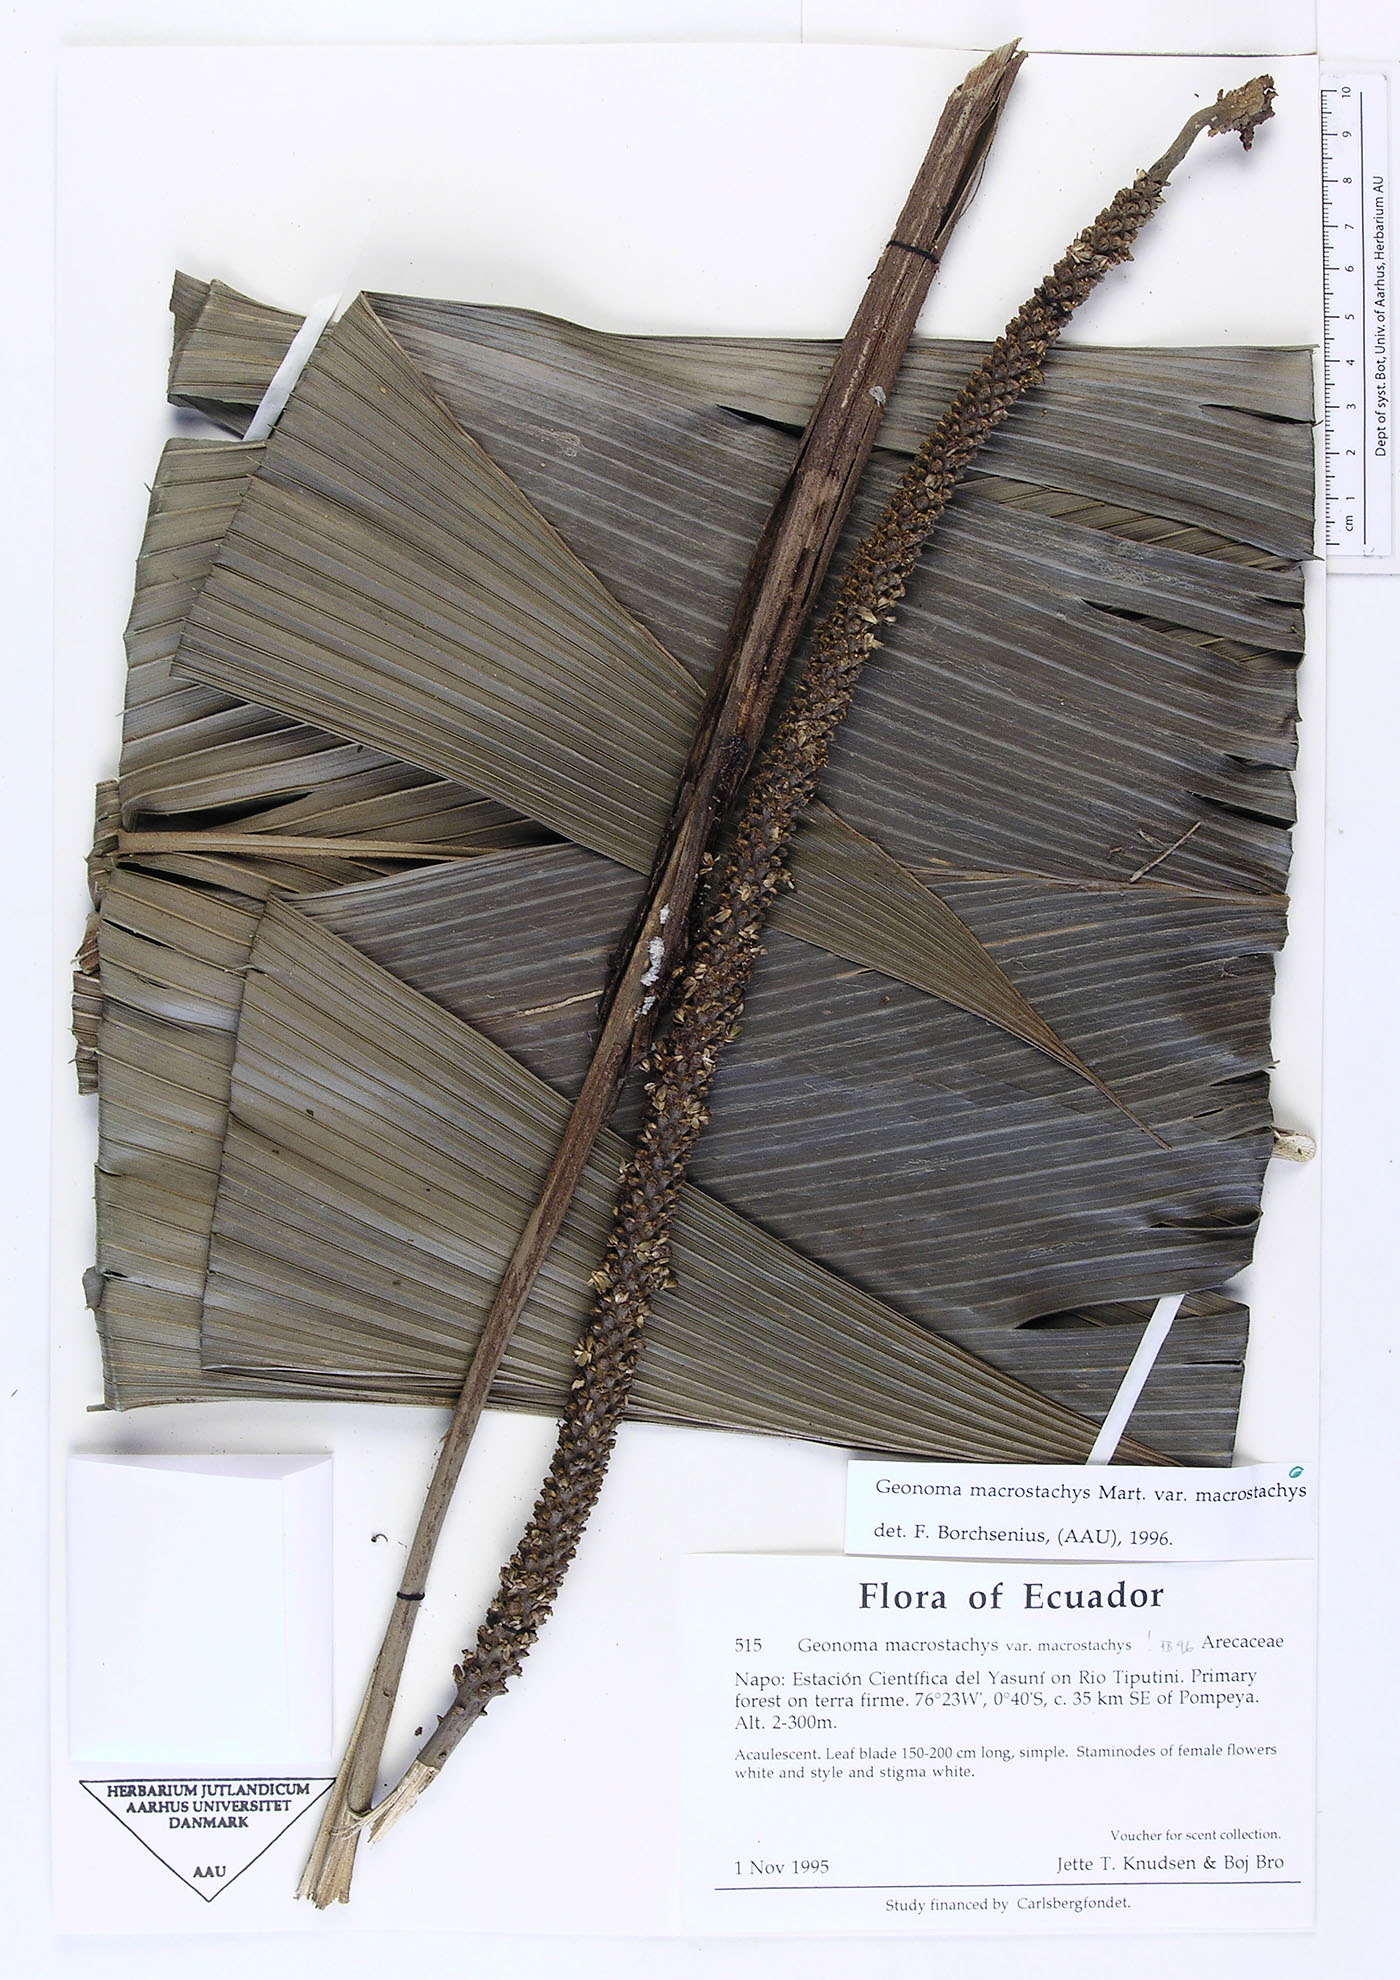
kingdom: Plantae
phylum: Tracheophyta
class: Liliopsida
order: Arecales
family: Arecaceae
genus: Geonoma
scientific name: Geonoma macrostachys
